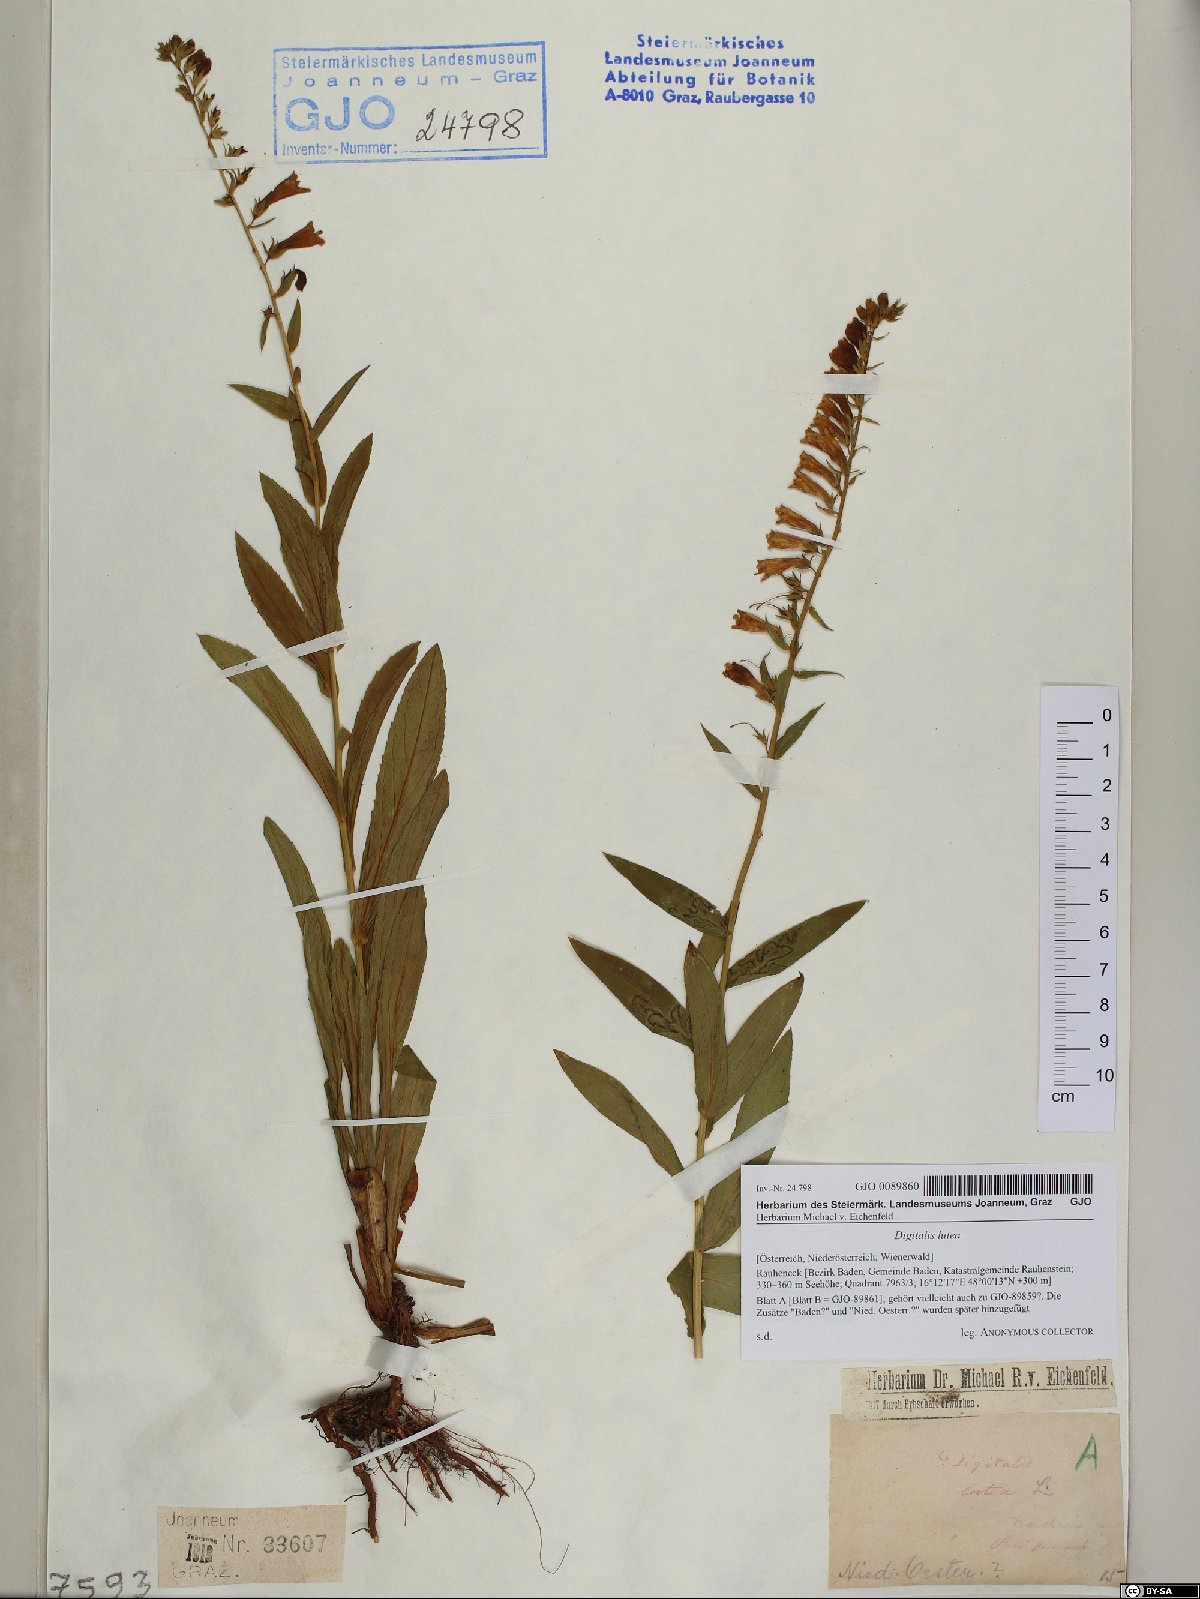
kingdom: Plantae
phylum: Tracheophyta
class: Magnoliopsida
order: Lamiales
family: Plantaginaceae
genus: Digitalis
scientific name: Digitalis lutea
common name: Straw foxglove
